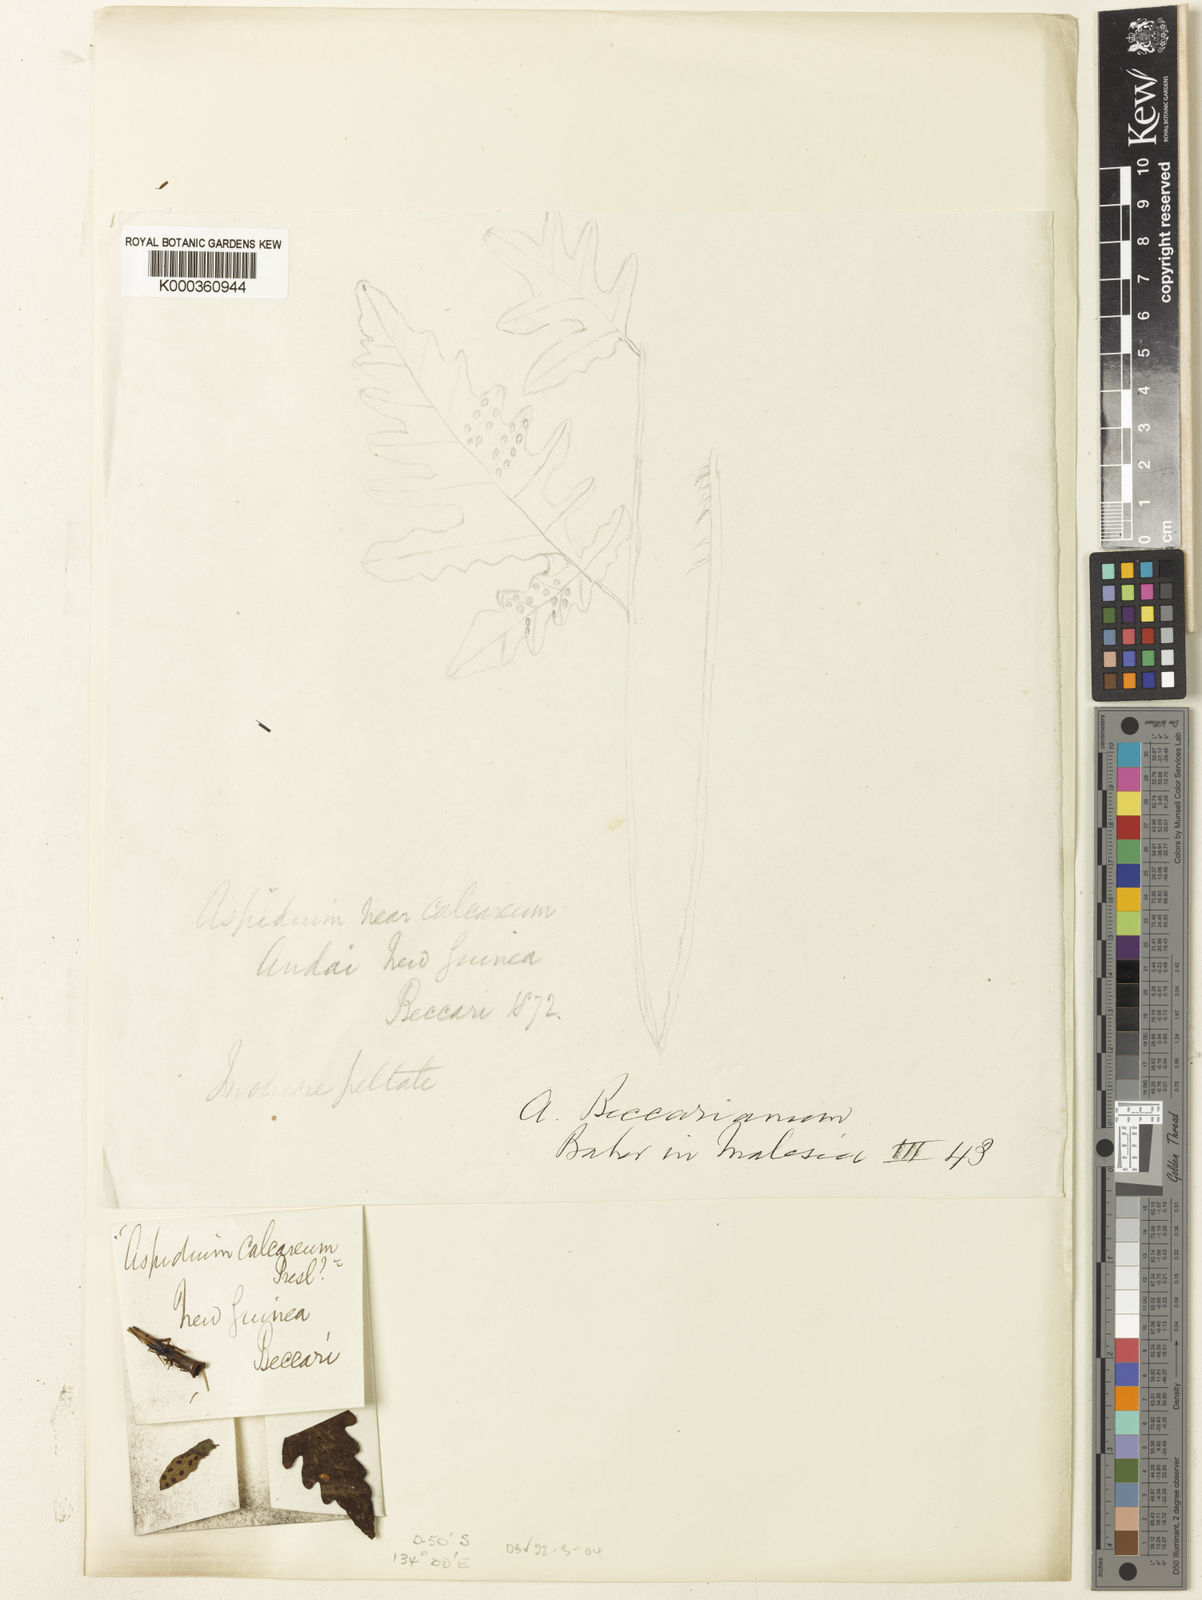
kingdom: Plantae
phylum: Tracheophyta
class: Polypodiopsida
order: Polypodiales
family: Tectariaceae
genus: Tectaria
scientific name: Tectaria bamleriana
